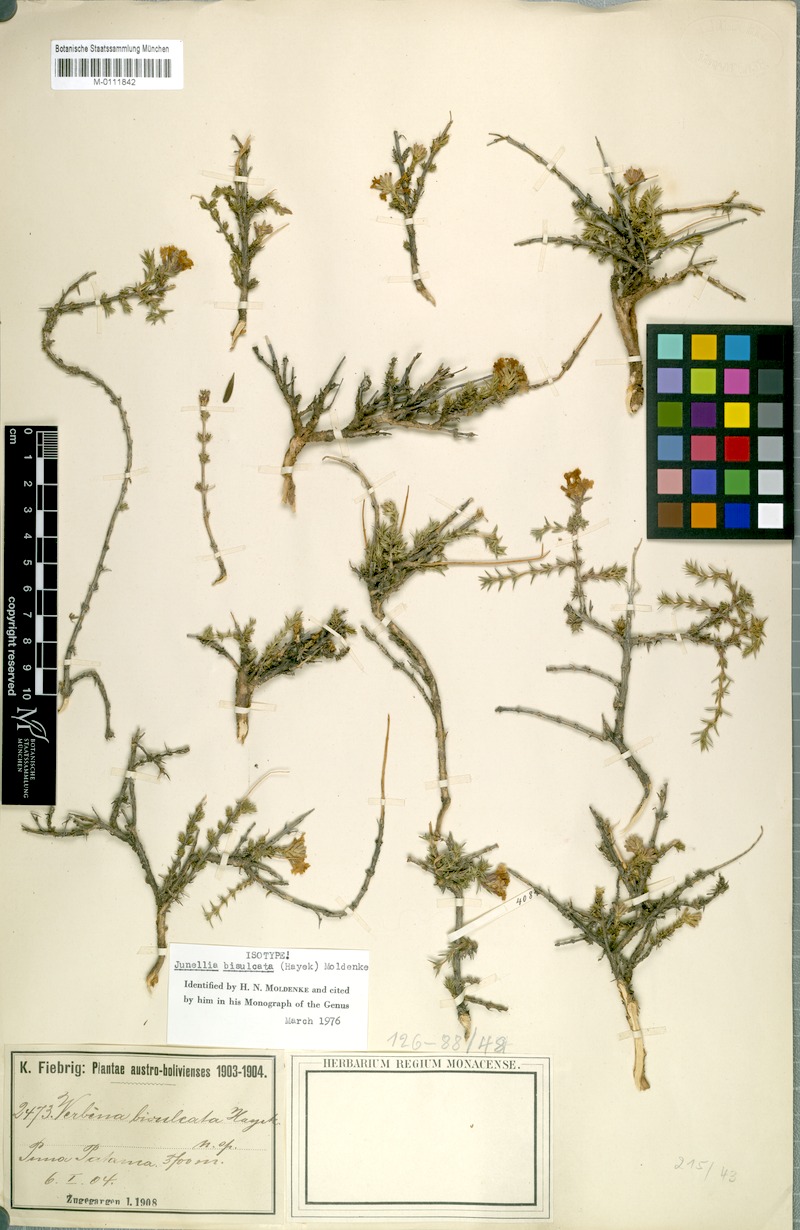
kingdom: Plantae
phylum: Tracheophyta
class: Magnoliopsida
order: Lamiales
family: Verbenaceae
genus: Junellia
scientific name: Junellia bisulcata
